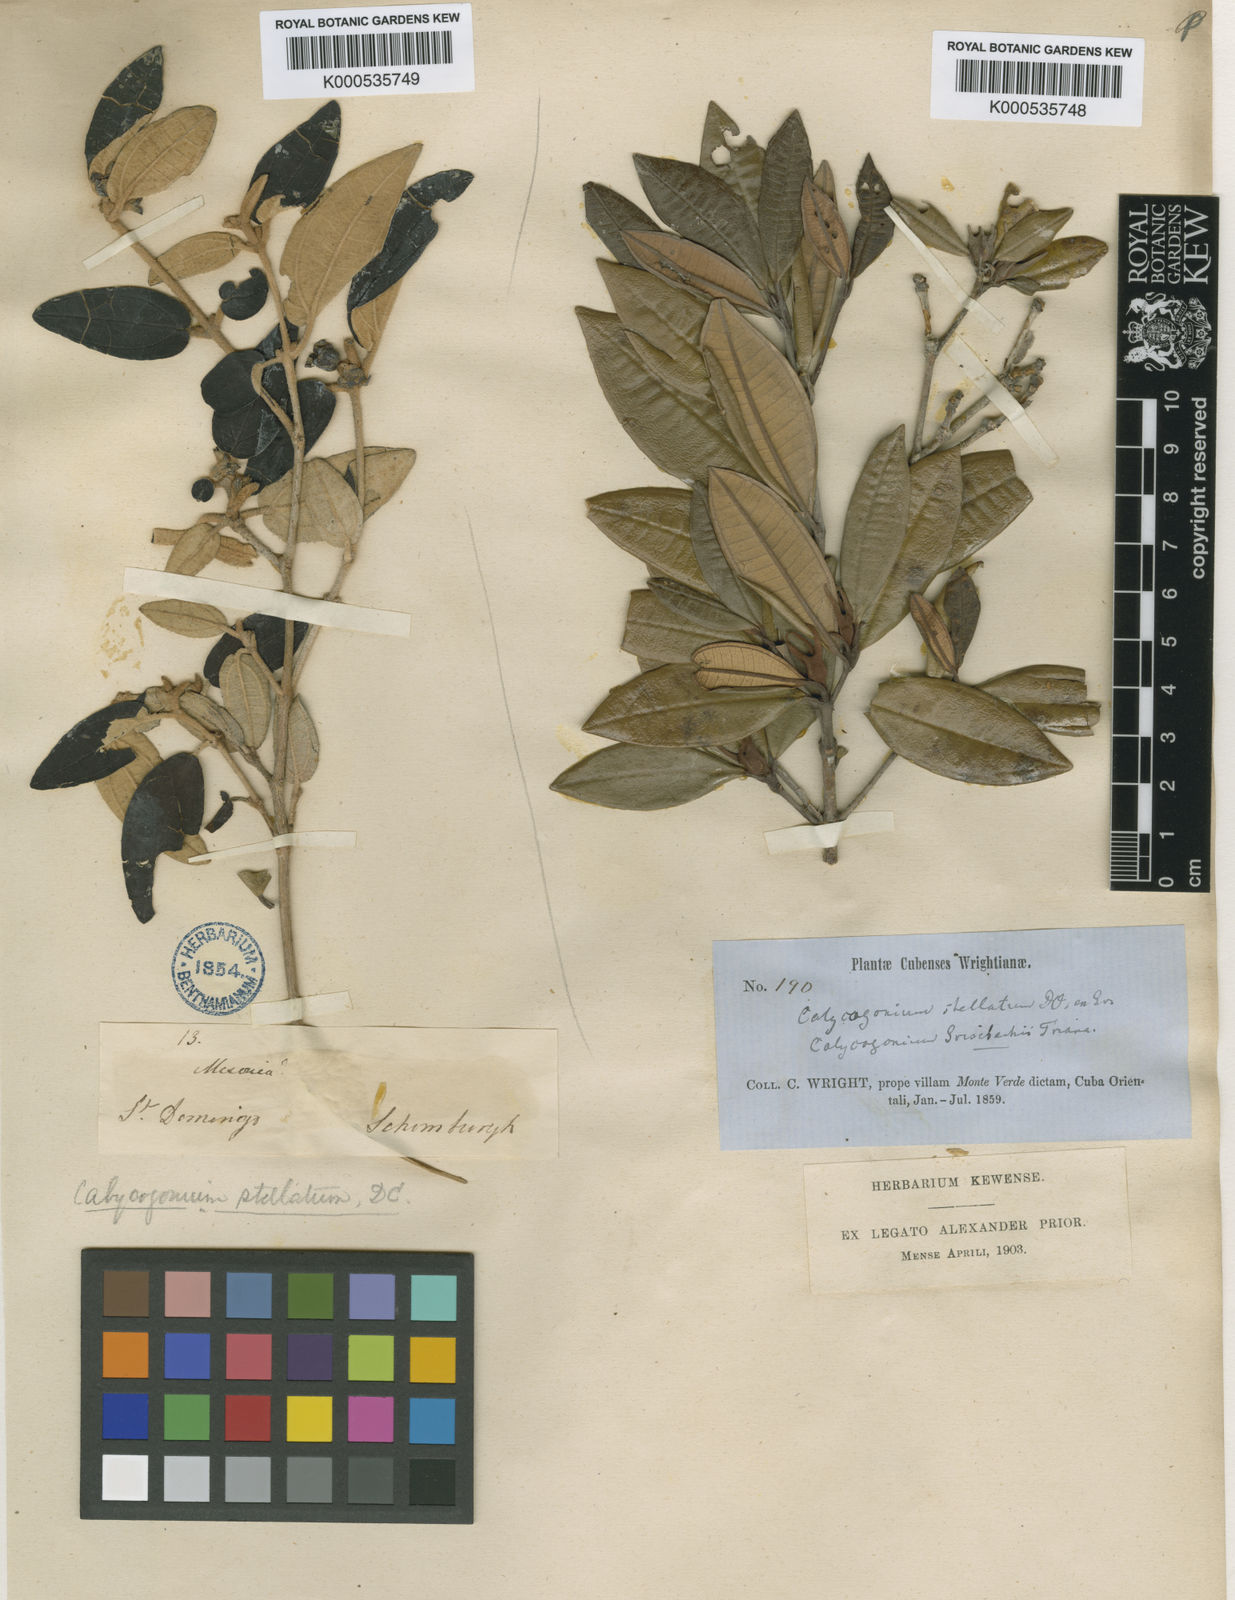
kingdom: Plantae
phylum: Tracheophyta
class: Magnoliopsida
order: Myrtales
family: Melastomataceae
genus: Miconia
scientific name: Miconia grisebachiana
